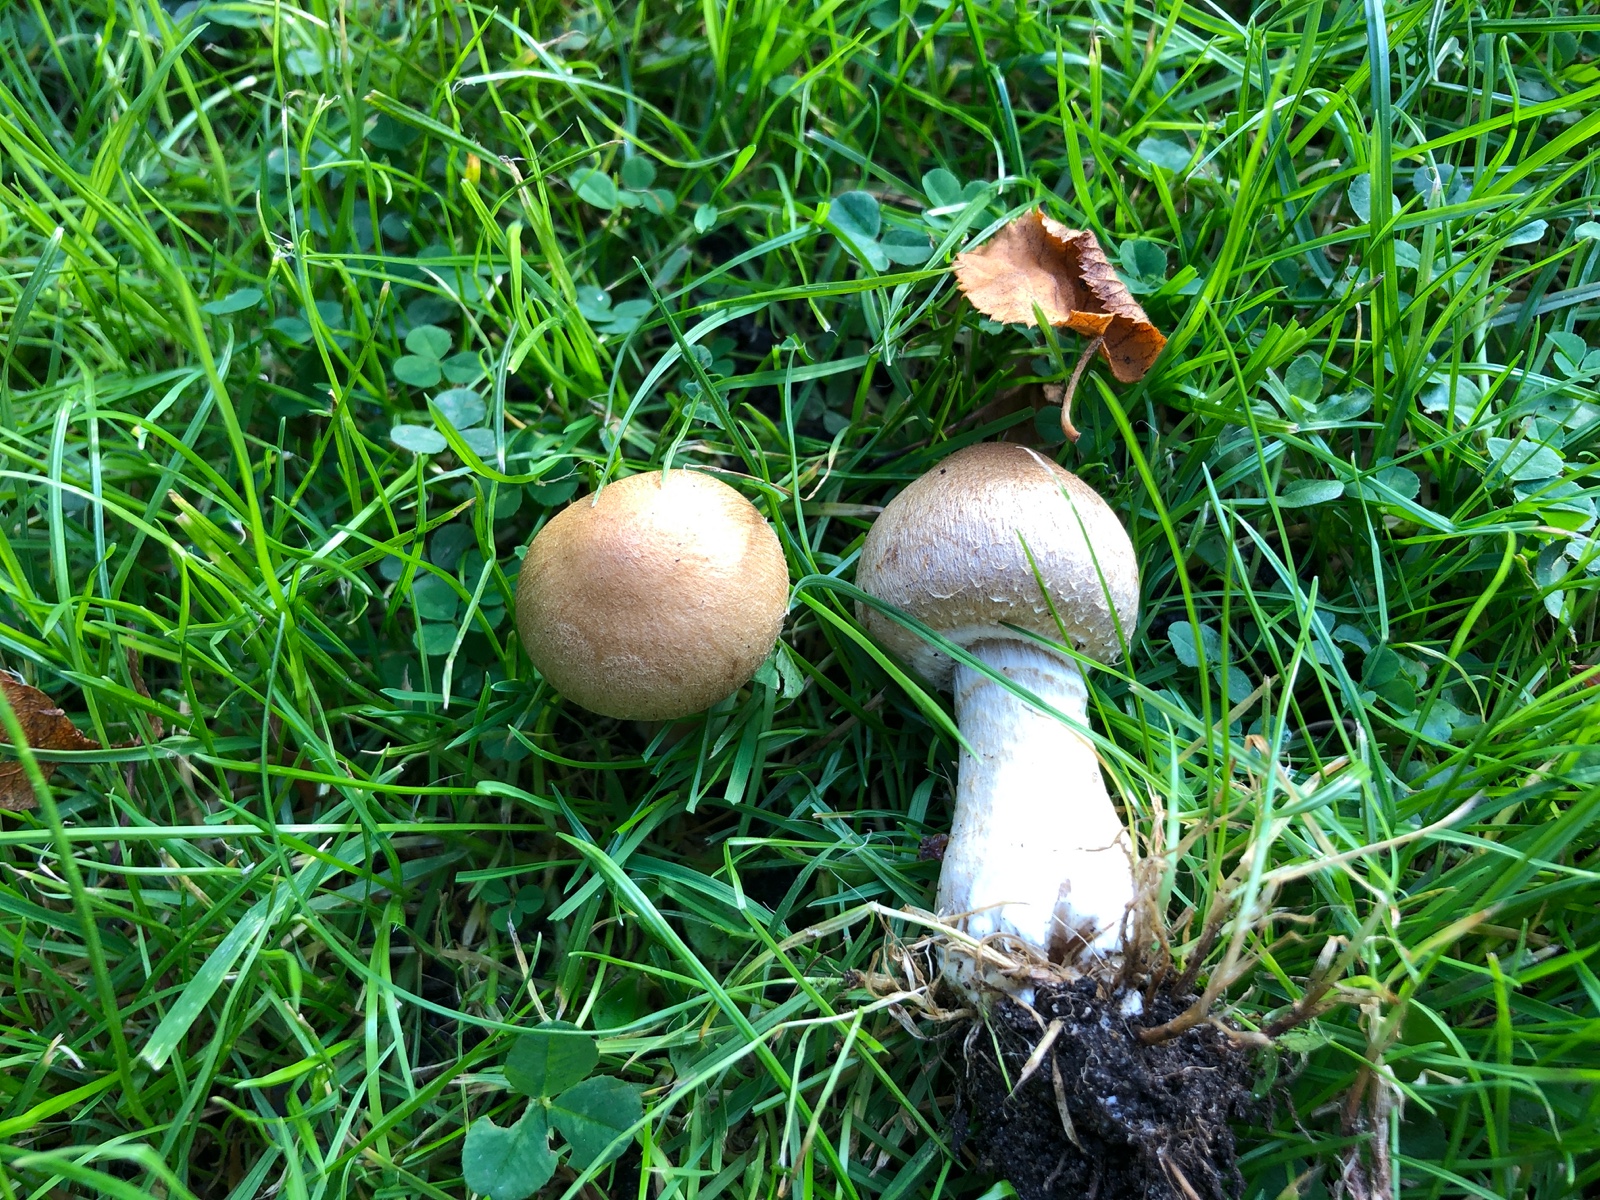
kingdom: Fungi
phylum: Basidiomycota
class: Agaricomycetes
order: Agaricales
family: Psathyrellaceae
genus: Lacrymaria
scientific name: Lacrymaria lacrymabunda
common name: grædende mørkhat
